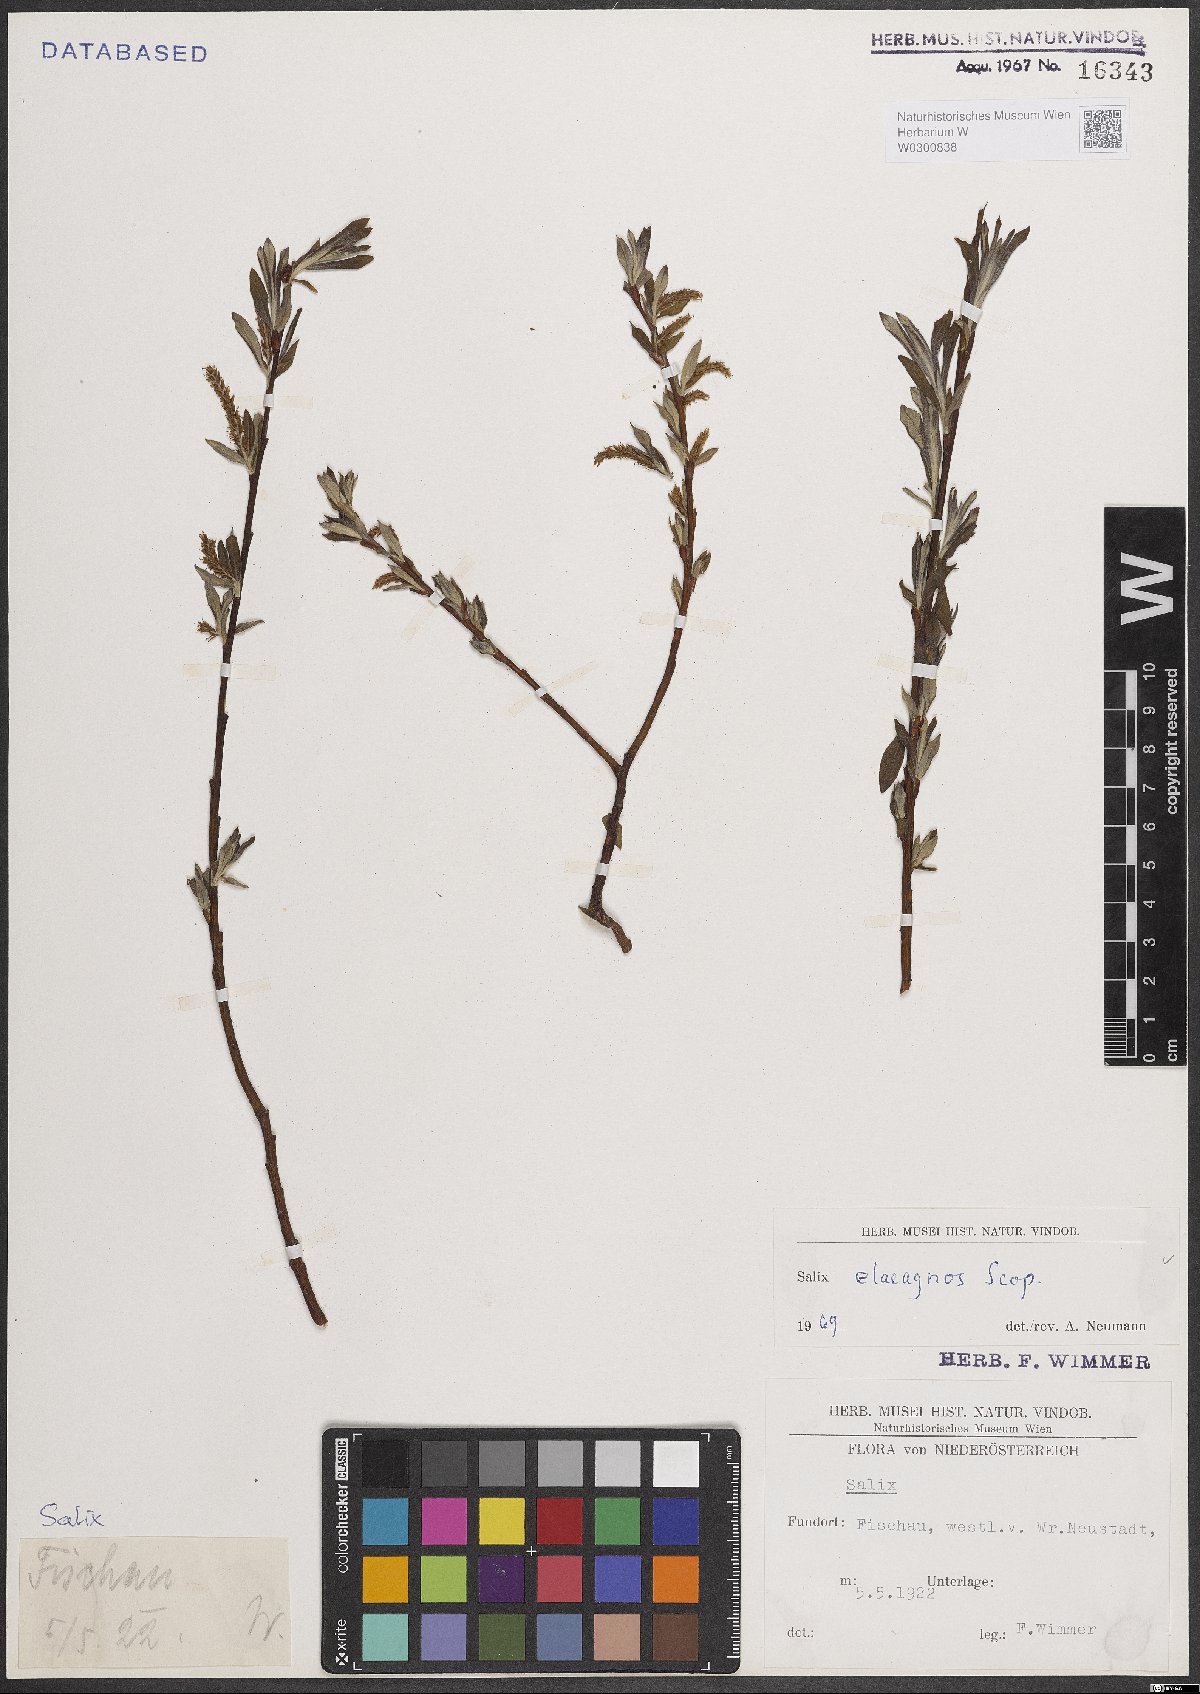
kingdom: Plantae
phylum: Tracheophyta
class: Magnoliopsida
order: Malpighiales
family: Salicaceae
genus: Salix
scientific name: Salix eleagnos
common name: Elaeagnus willow
